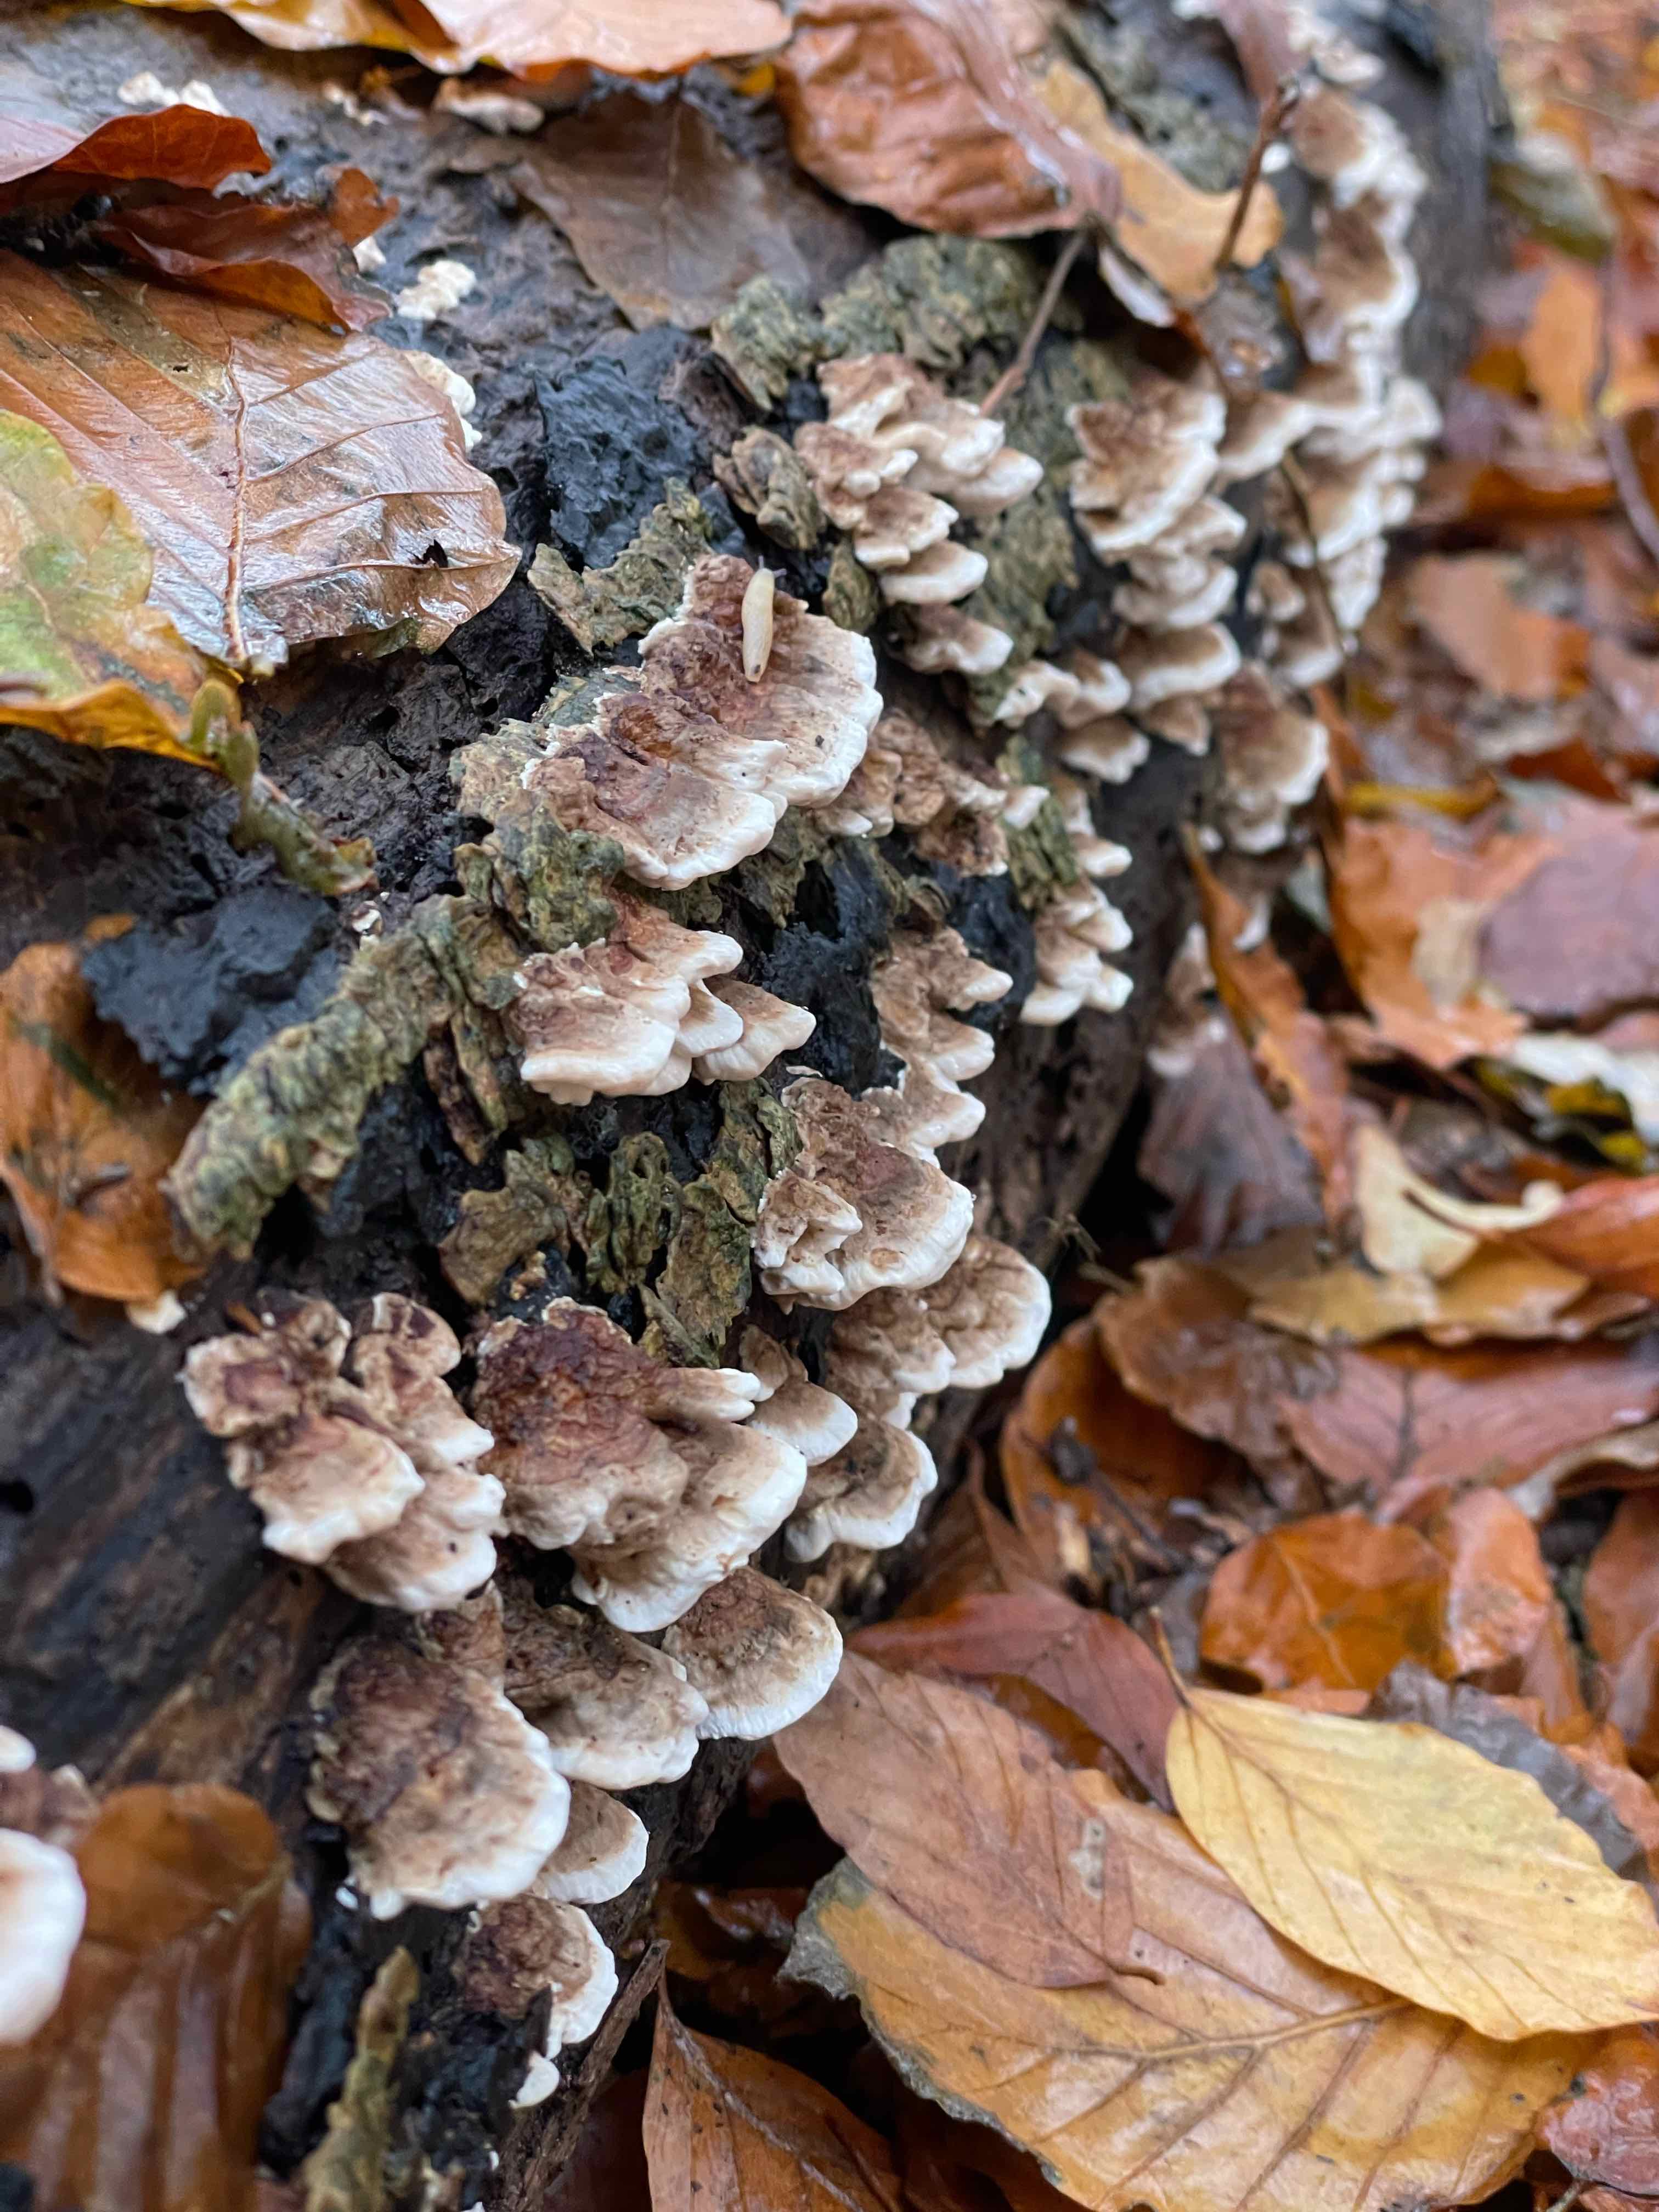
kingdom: Fungi
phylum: Basidiomycota
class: Agaricomycetes
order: Polyporales
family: Polyporaceae
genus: Trametes
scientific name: Trametes
